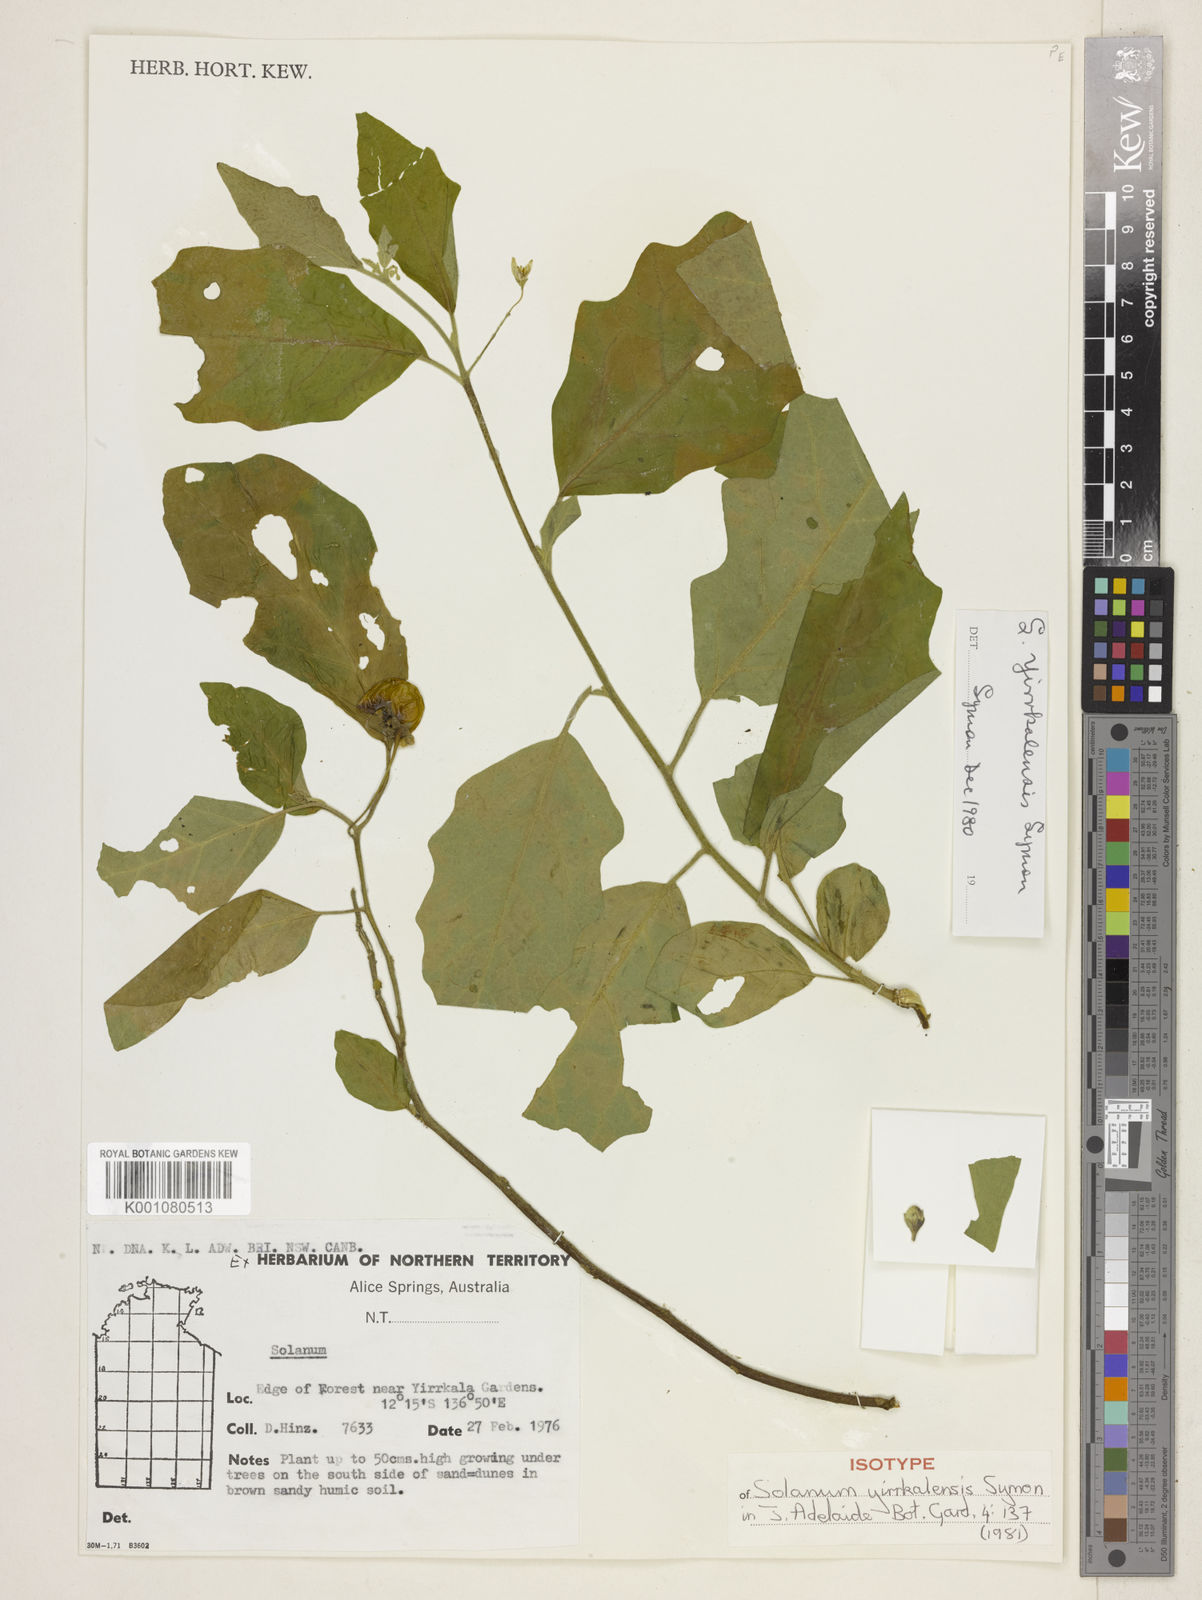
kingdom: Plantae
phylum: Tracheophyta
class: Magnoliopsida
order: Solanales
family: Solanaceae
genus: Solanum
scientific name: Solanum yirrkalense
